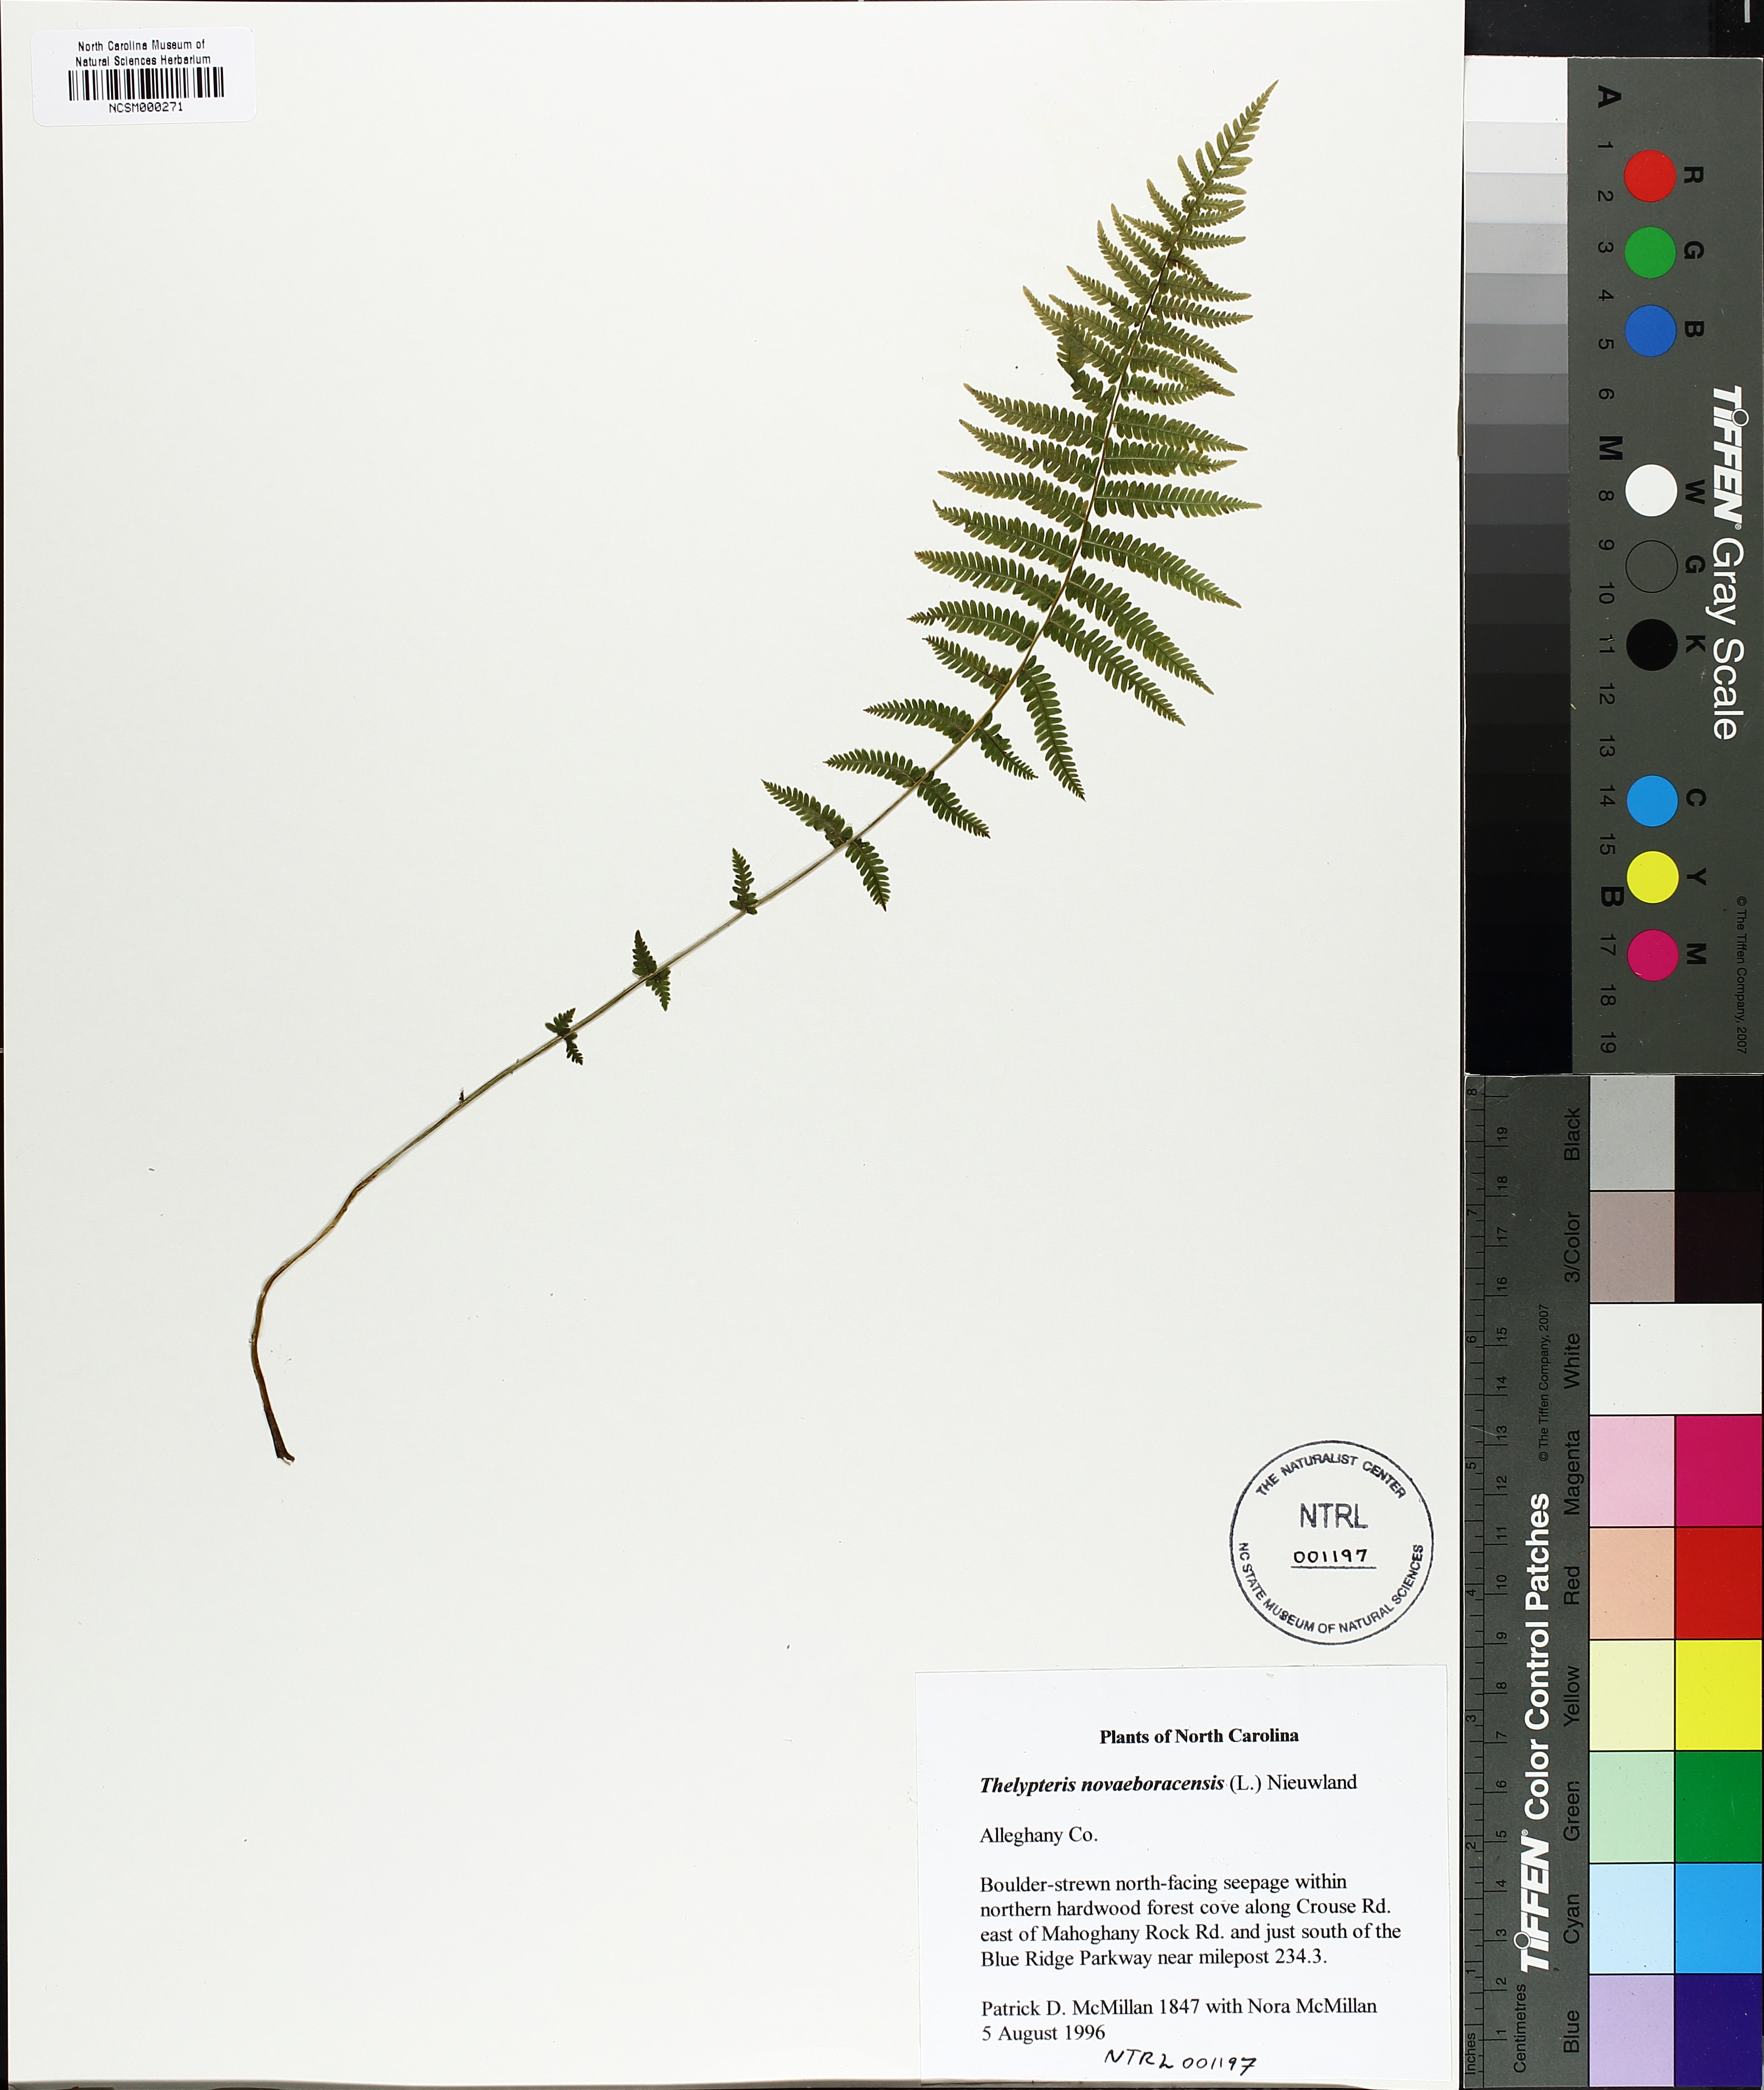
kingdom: Plantae
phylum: Tracheophyta
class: Polypodiopsida
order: Polypodiales
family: Thelypteridaceae
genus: Amauropelta
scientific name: Amauropelta noveboracensis
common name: New york fern
